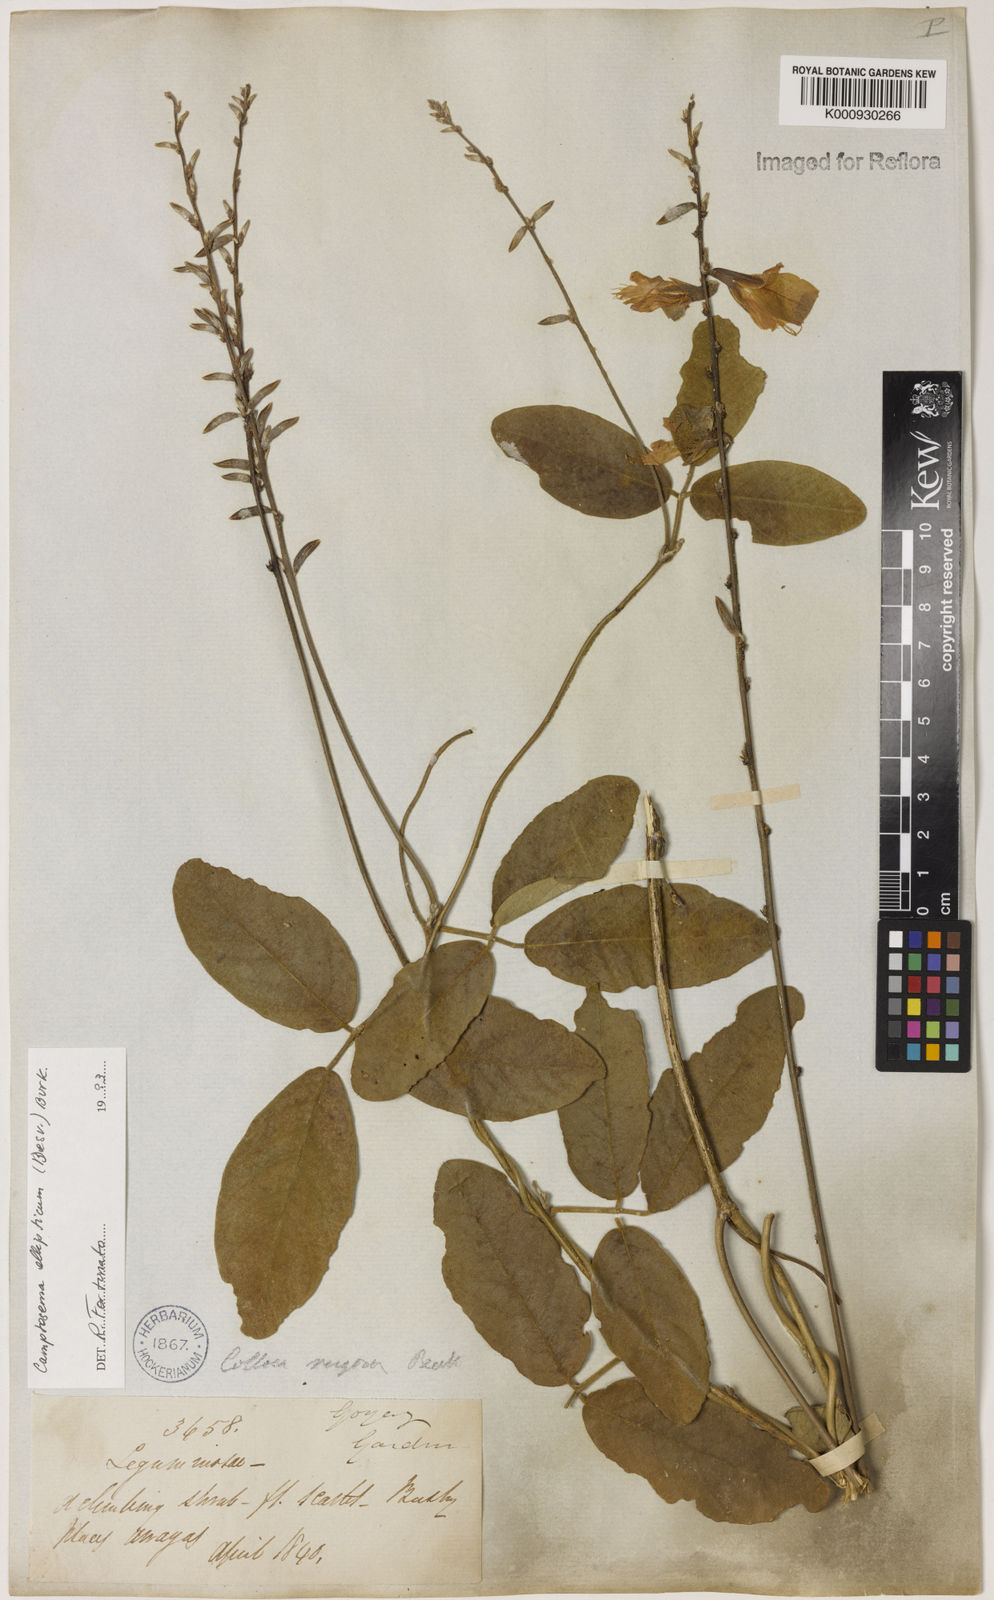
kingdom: Plantae
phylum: Tracheophyta
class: Magnoliopsida
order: Fabales
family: Fabaceae
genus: Camptosema
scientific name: Camptosema
